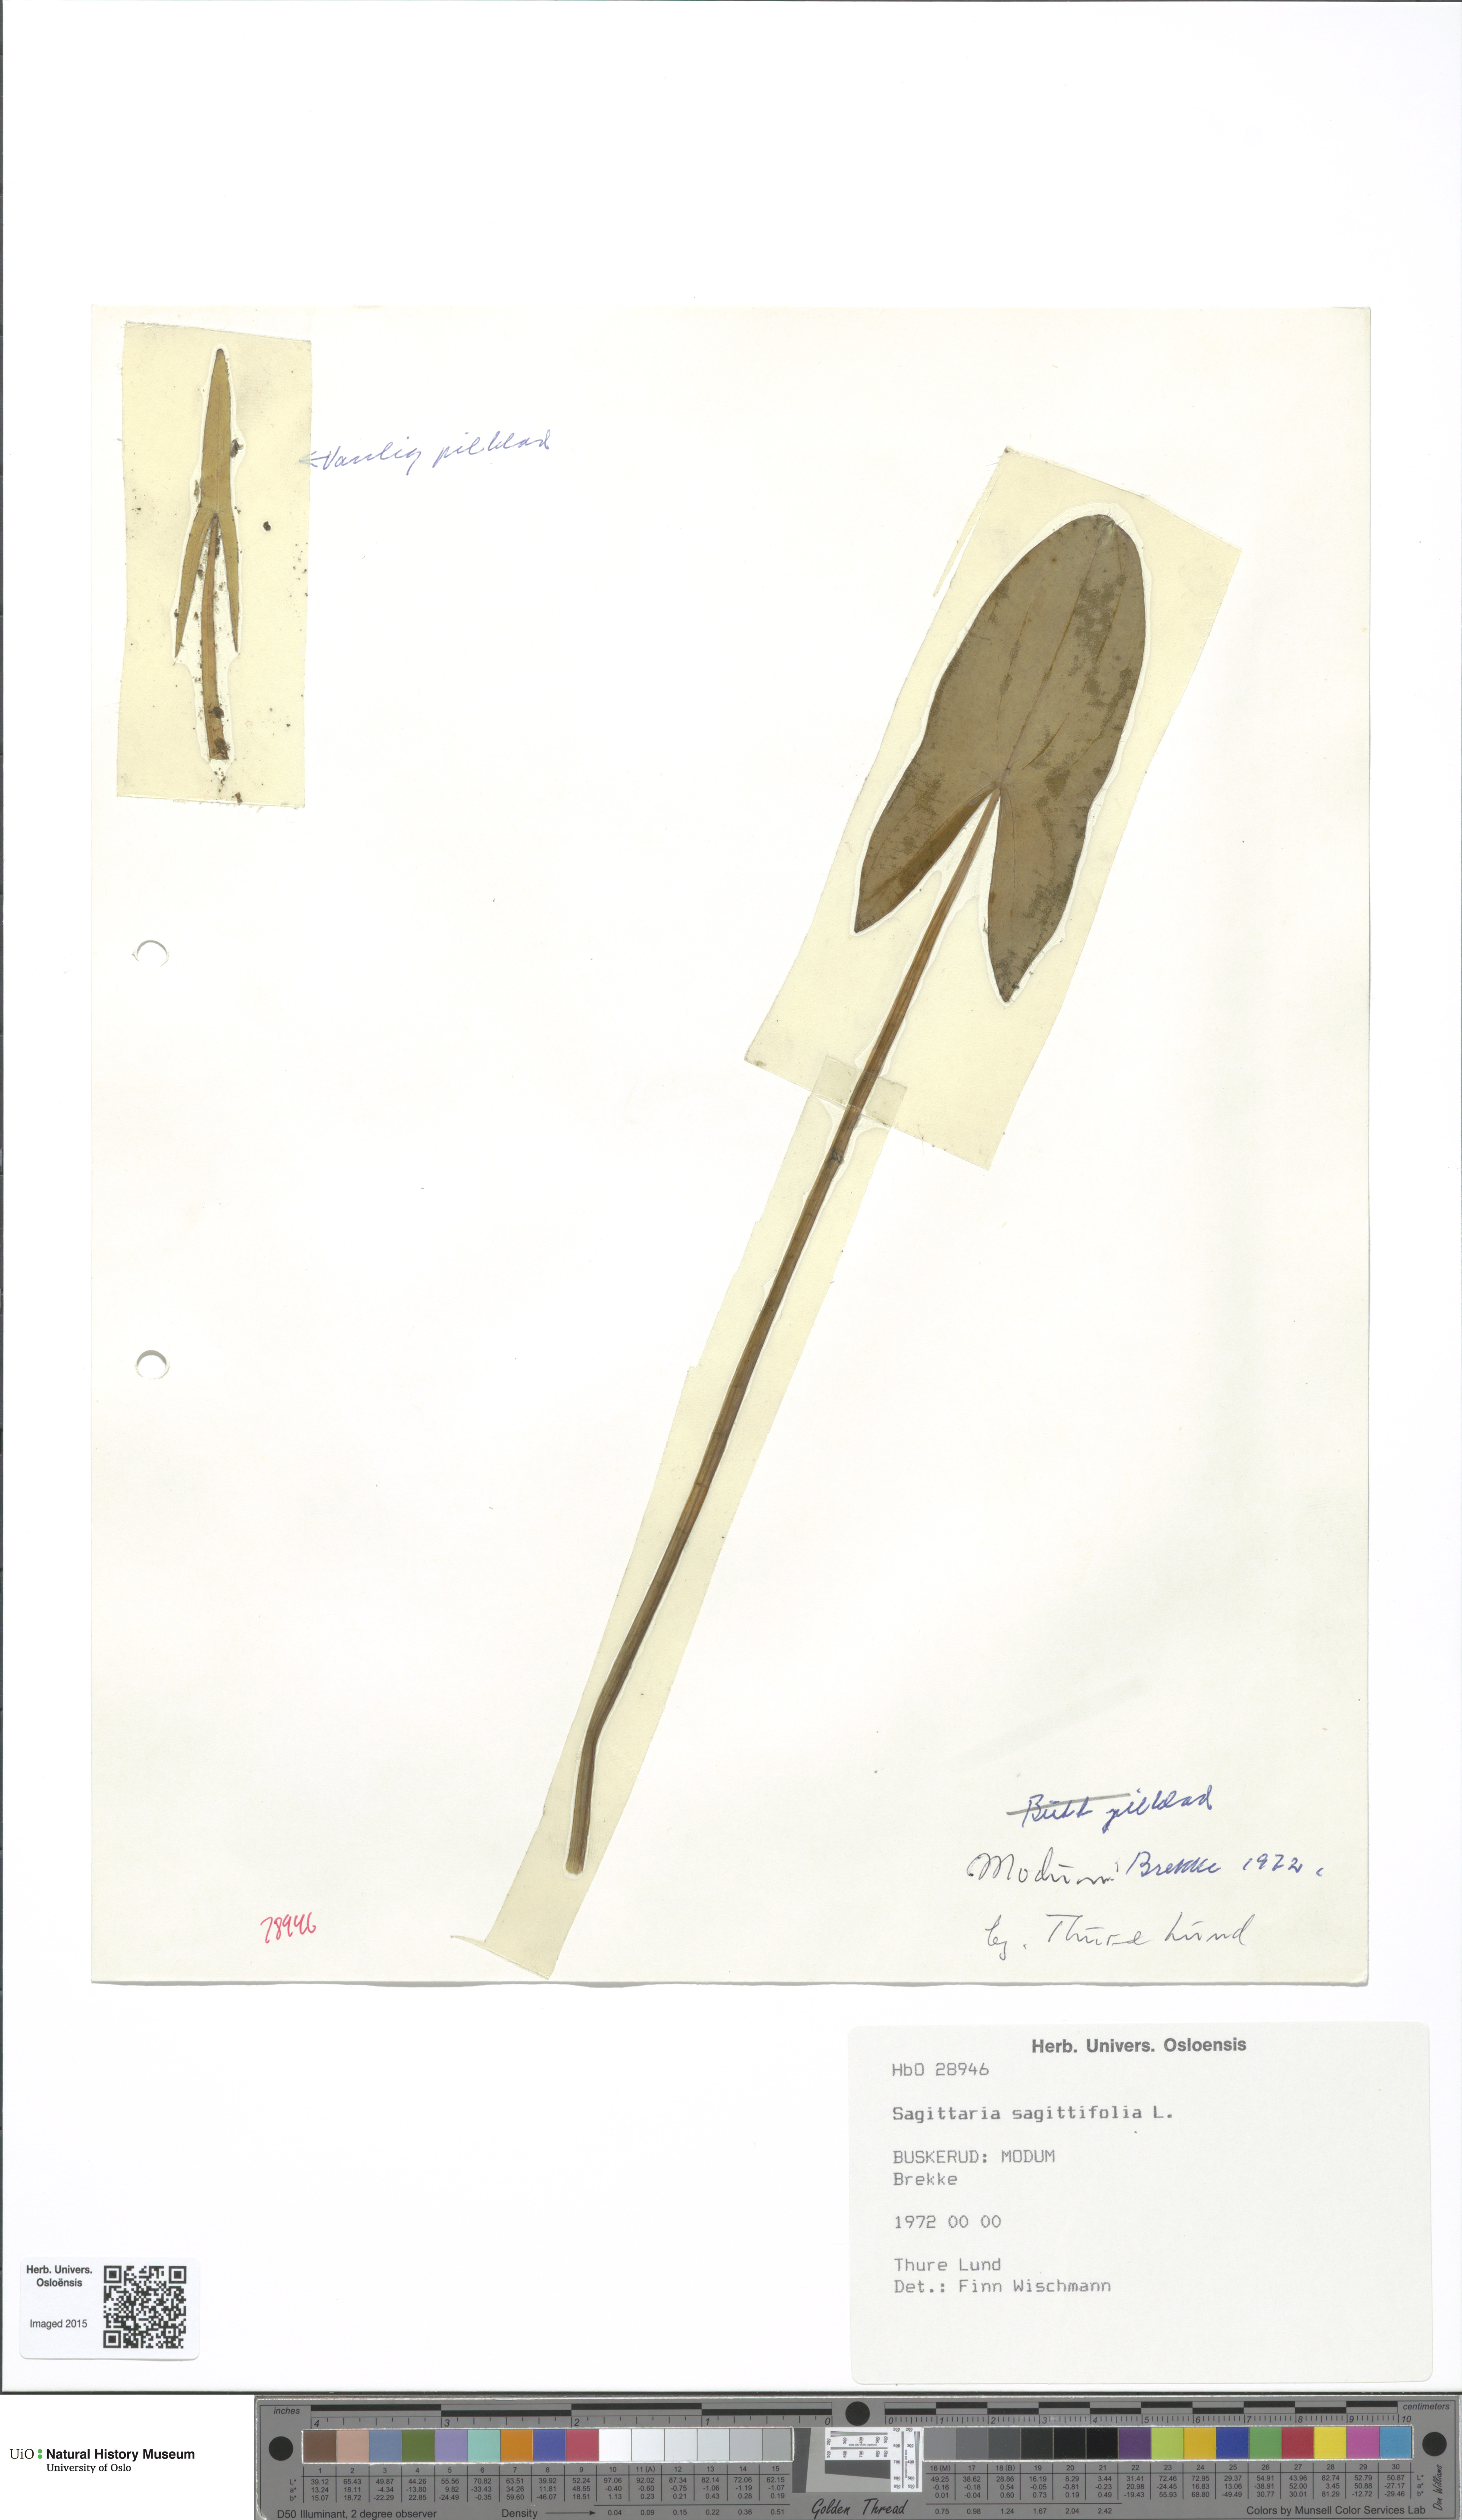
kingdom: Plantae
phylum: Tracheophyta
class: Liliopsida
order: Alismatales
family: Alismataceae
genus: Sagittaria
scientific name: Sagittaria sagittifolia
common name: Arrowhead
